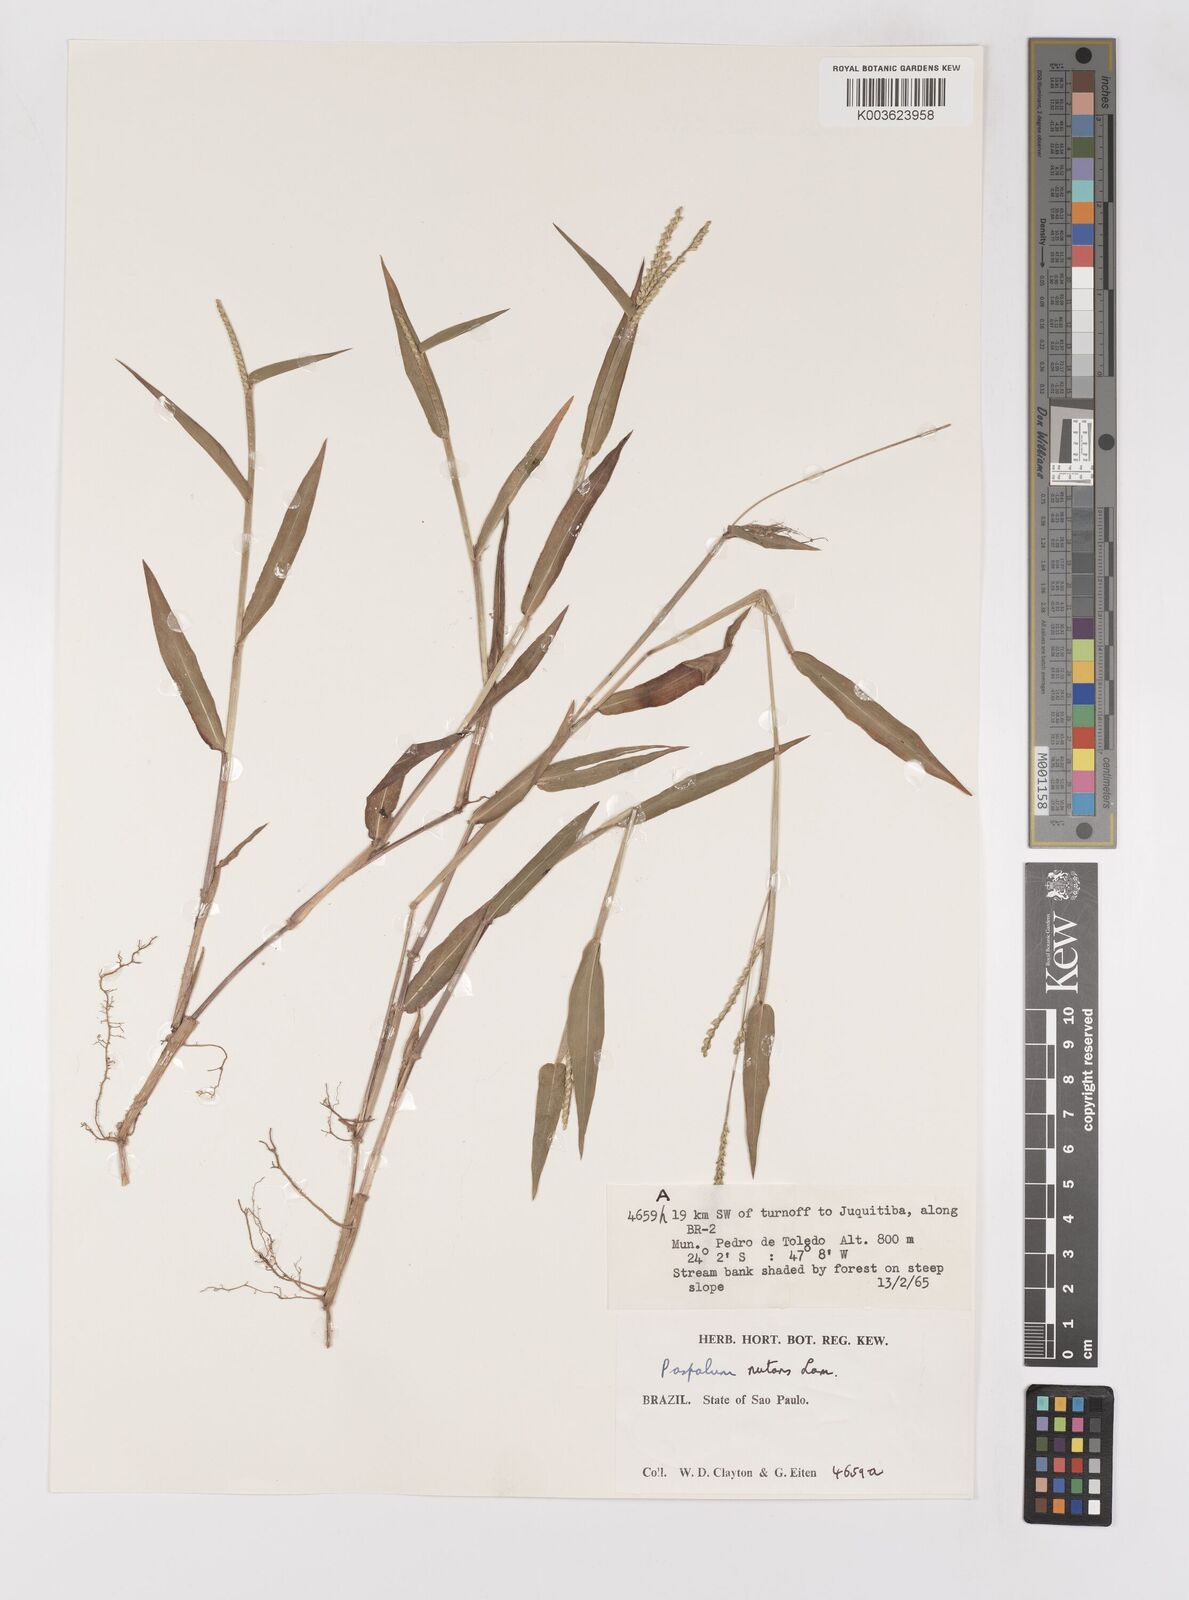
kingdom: Plantae
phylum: Tracheophyta
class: Liliopsida
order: Poales
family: Poaceae
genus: Paspalum
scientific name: Paspalum nutans
